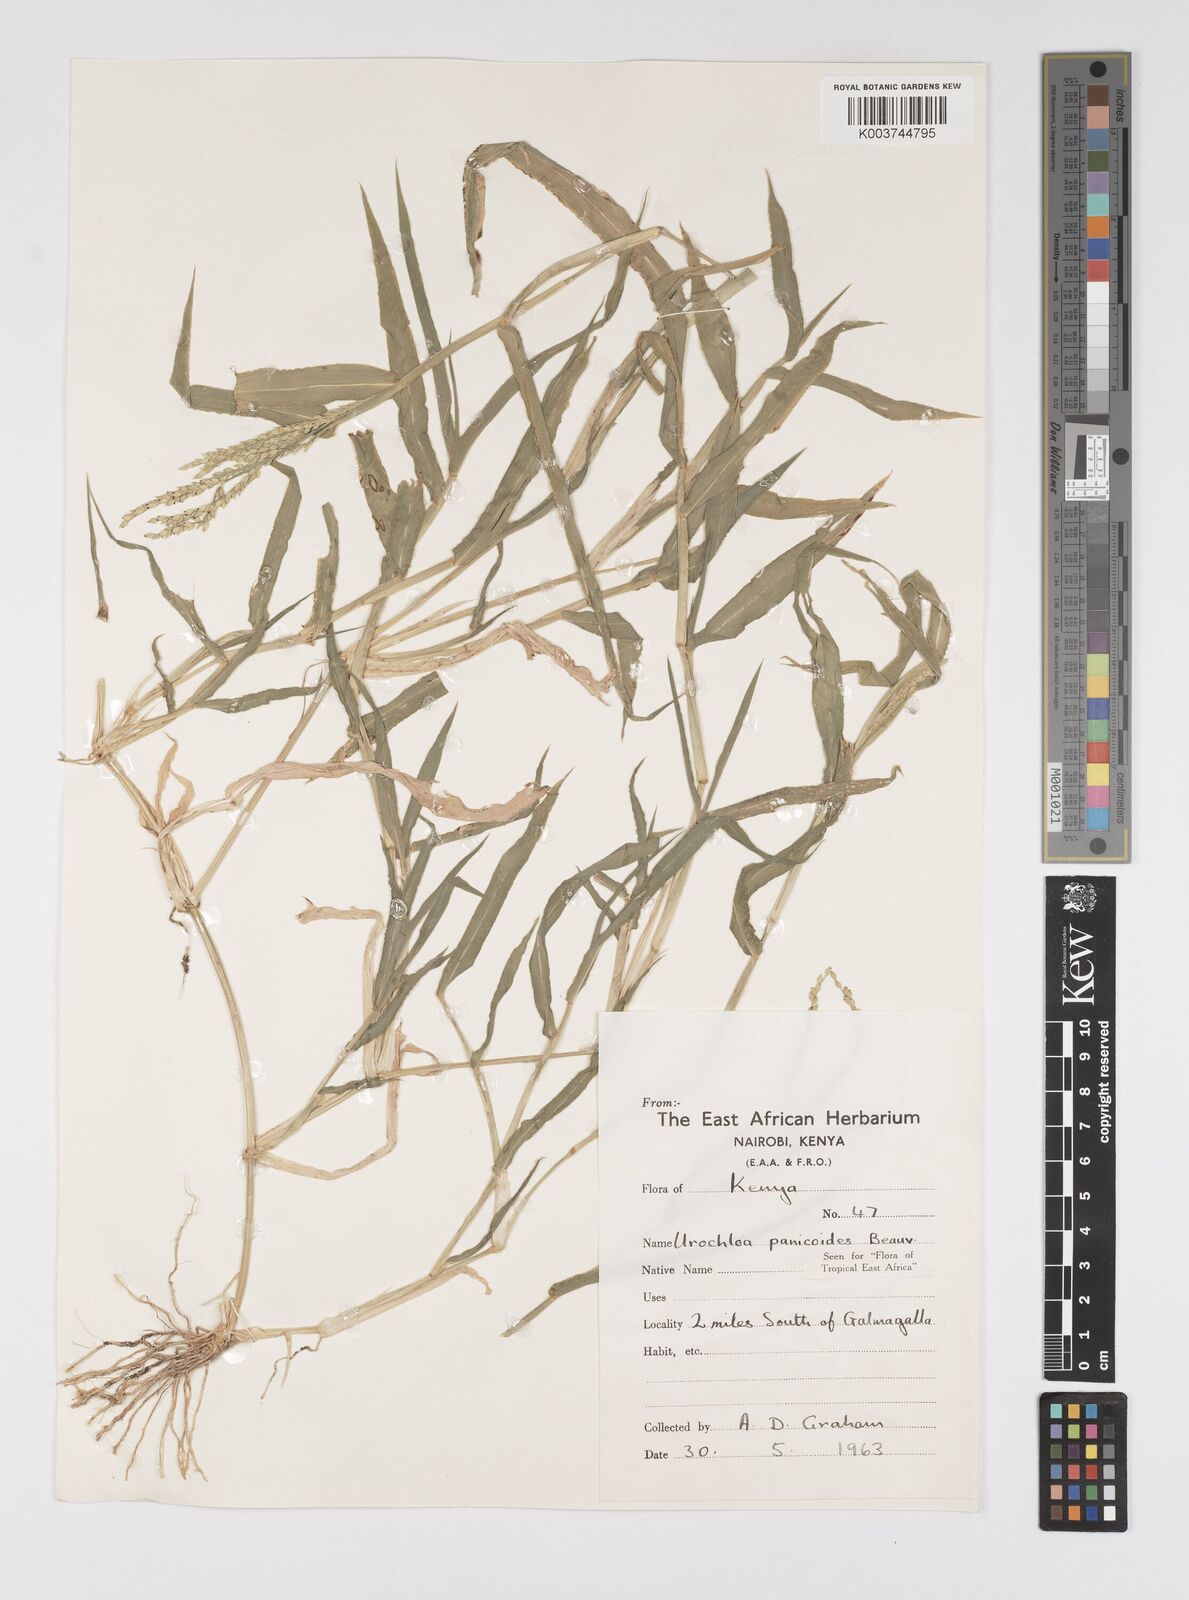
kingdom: Plantae
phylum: Tracheophyta
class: Liliopsida
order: Poales
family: Poaceae
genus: Urochloa
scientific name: Urochloa panicoides
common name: Sharp-flowered signal-grass
